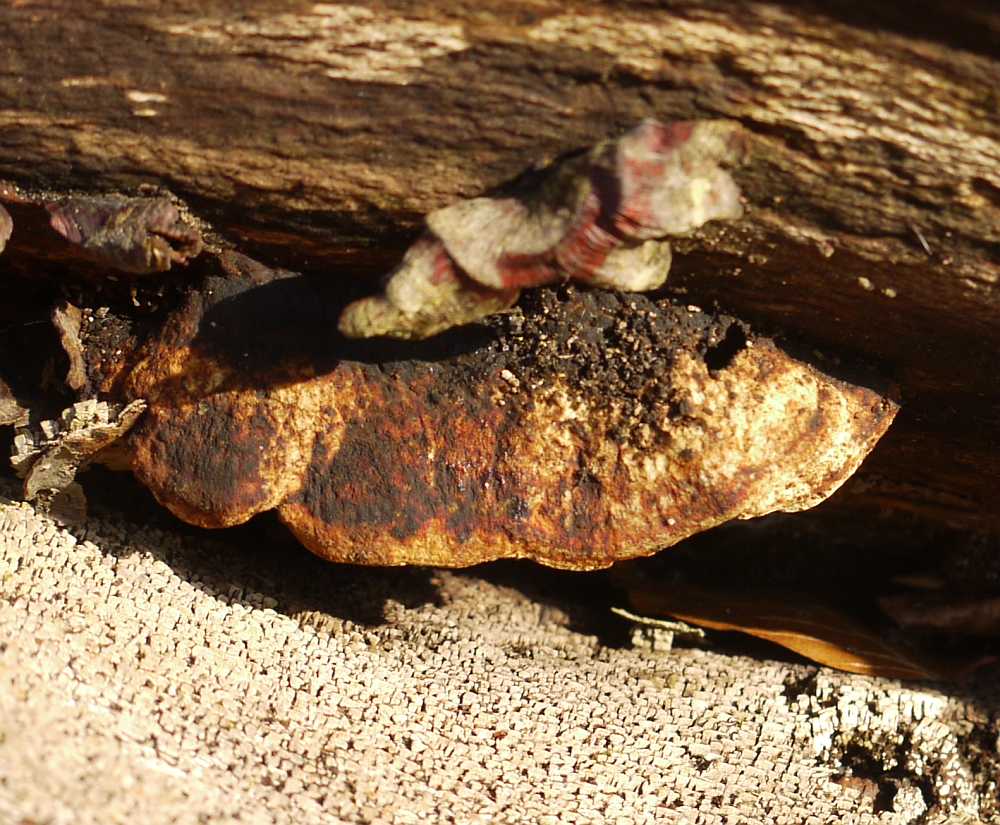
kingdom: Fungi
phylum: Basidiomycota
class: Agaricomycetes
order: Polyporales
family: Incrustoporiaceae
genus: Skeletocutis
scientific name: Skeletocutis nemoralis
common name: stor krystalporesvamp
